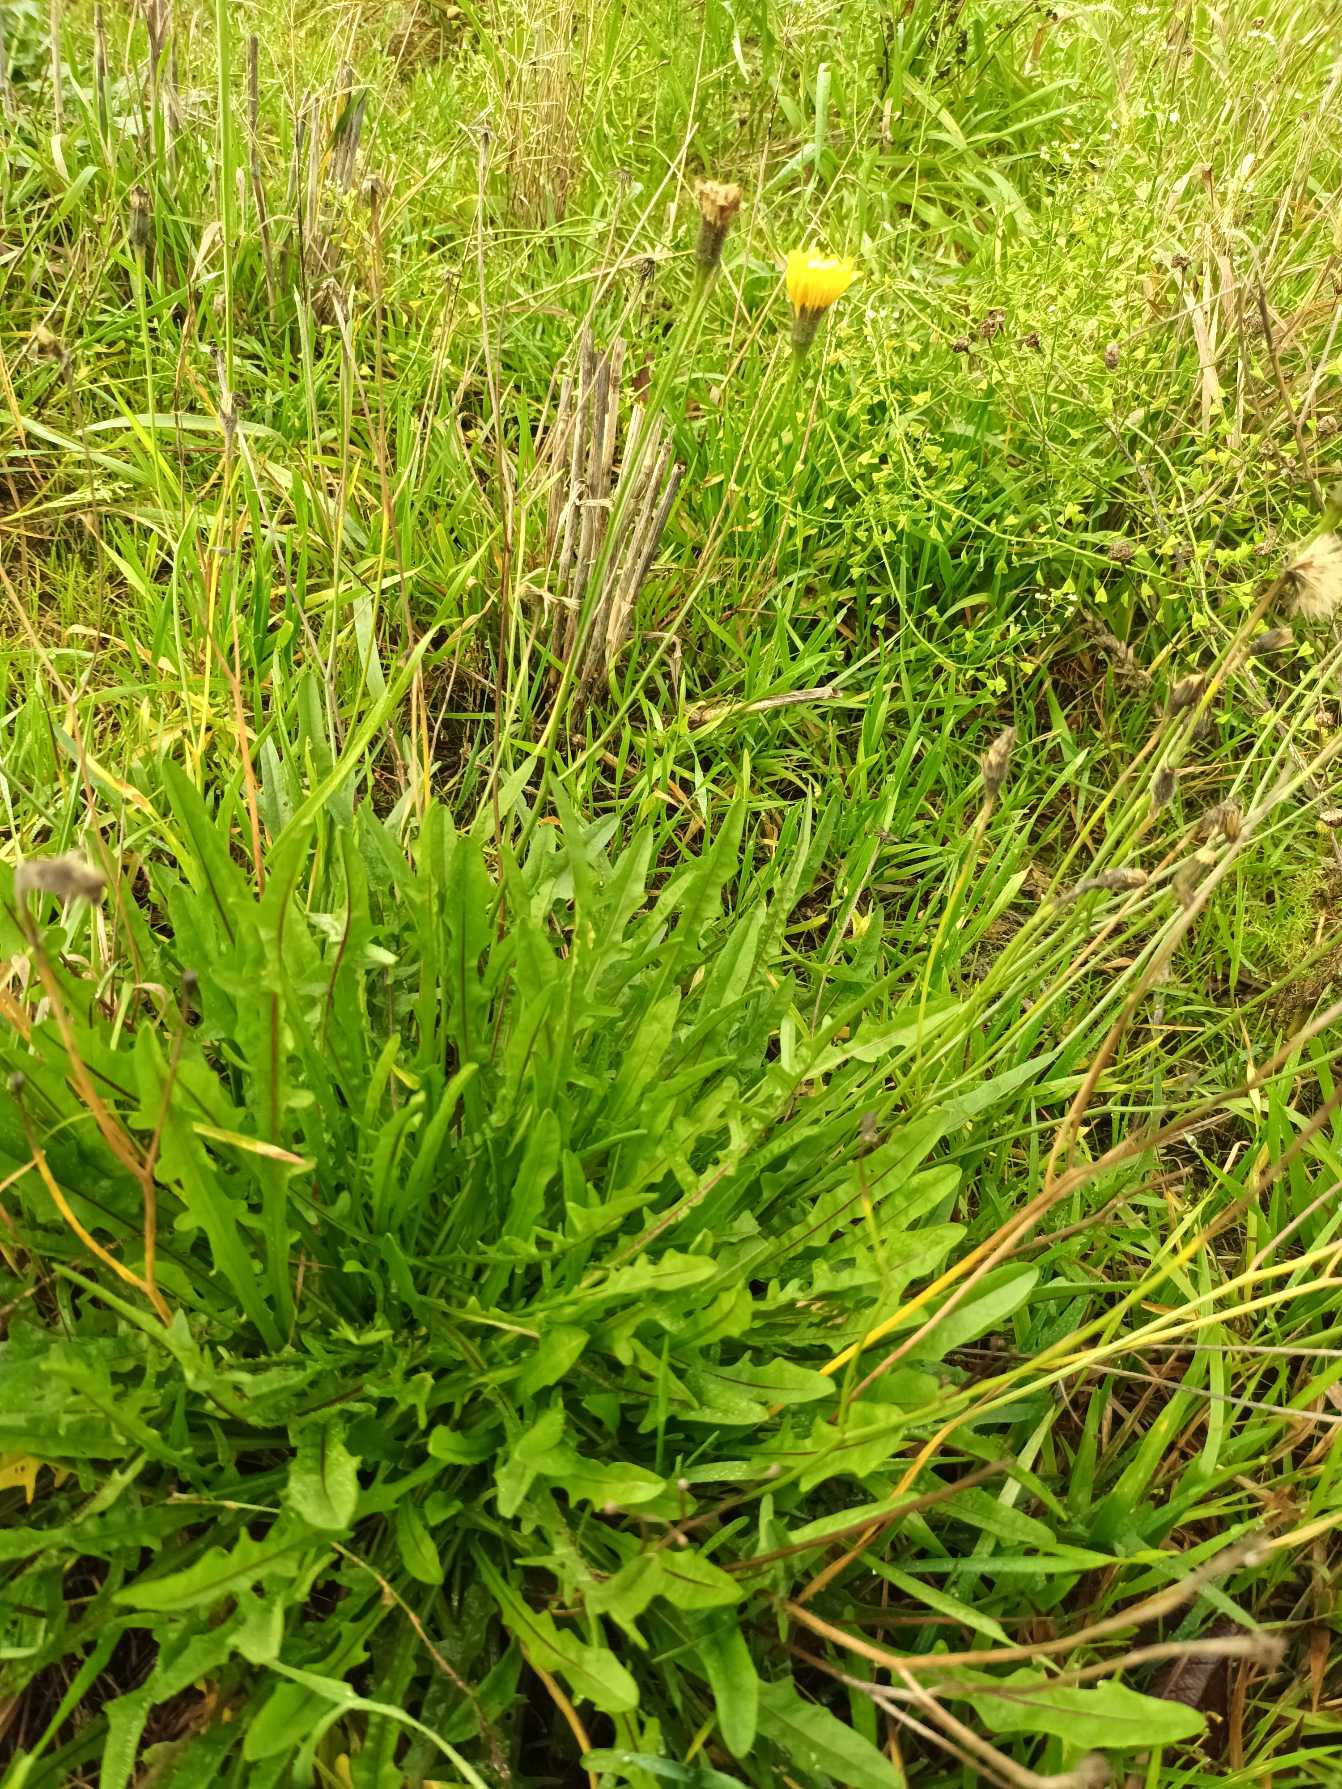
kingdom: Plantae
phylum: Tracheophyta
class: Magnoliopsida
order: Asterales
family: Asteraceae
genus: Scorzoneroides
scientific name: Scorzoneroides autumnalis
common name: Høst-borst
